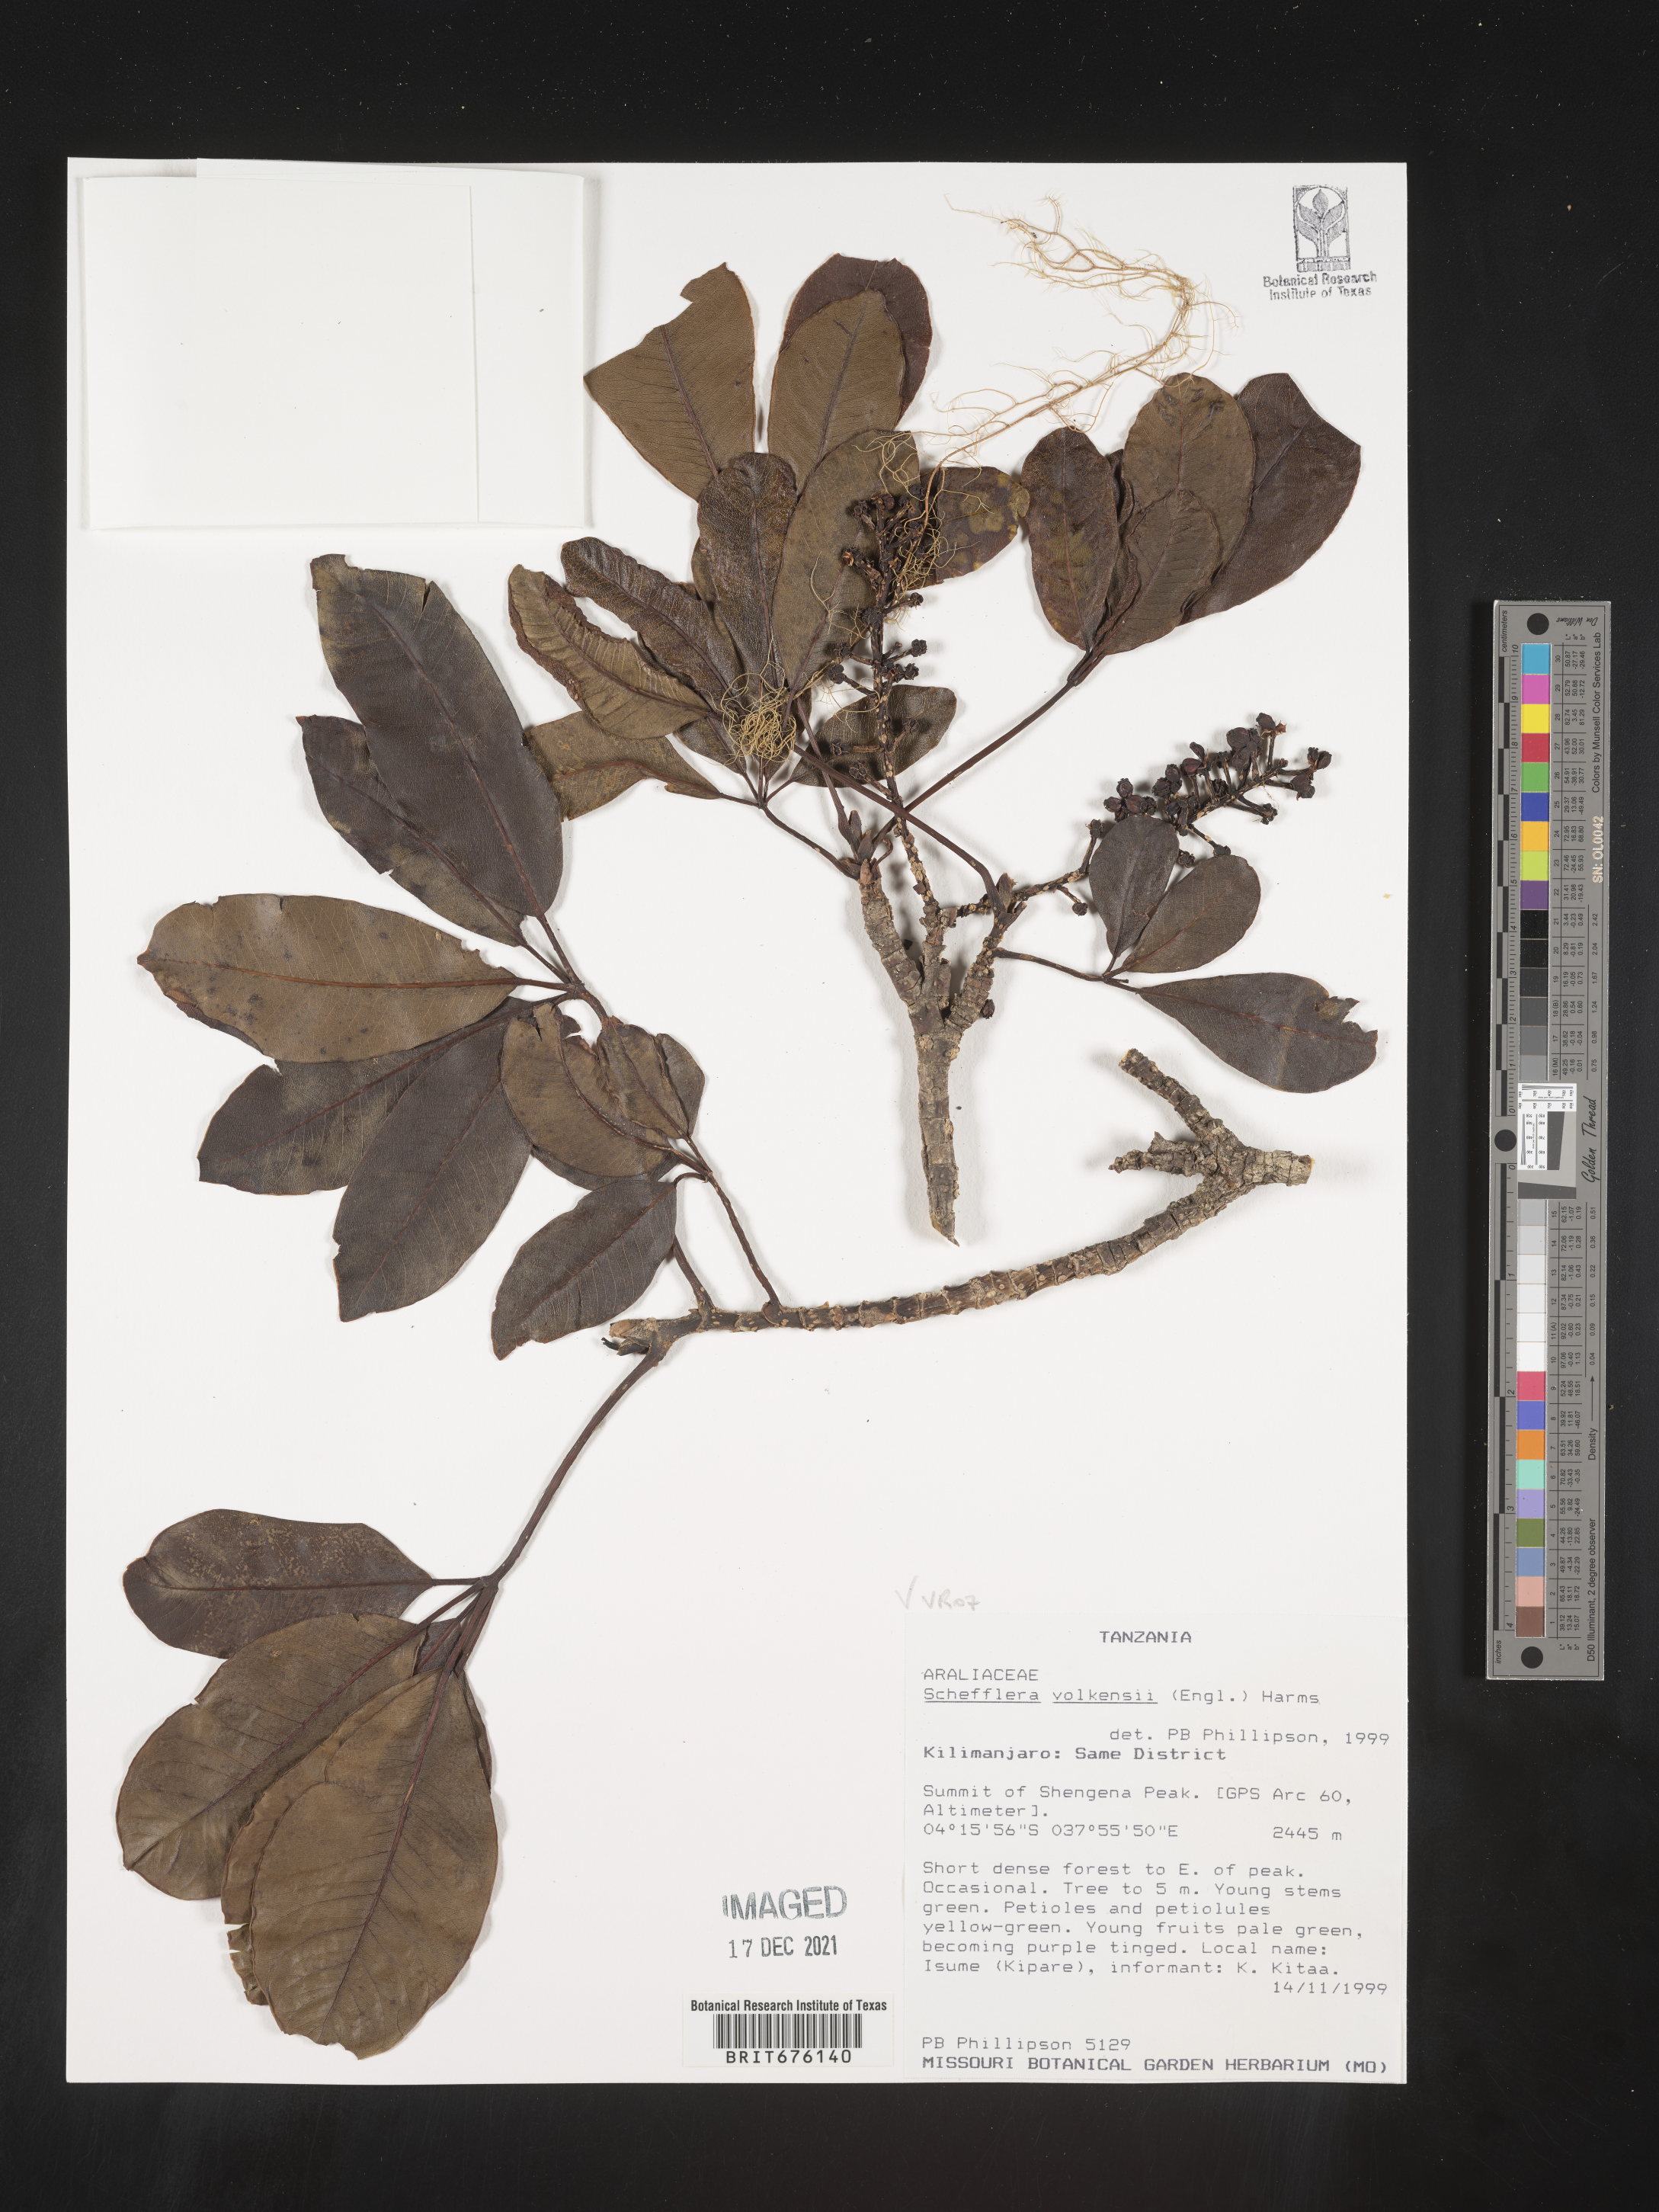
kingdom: Plantae
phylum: Tracheophyta
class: Magnoliopsida
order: Apiales
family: Araliaceae
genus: Schefflera
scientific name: Schefflera
